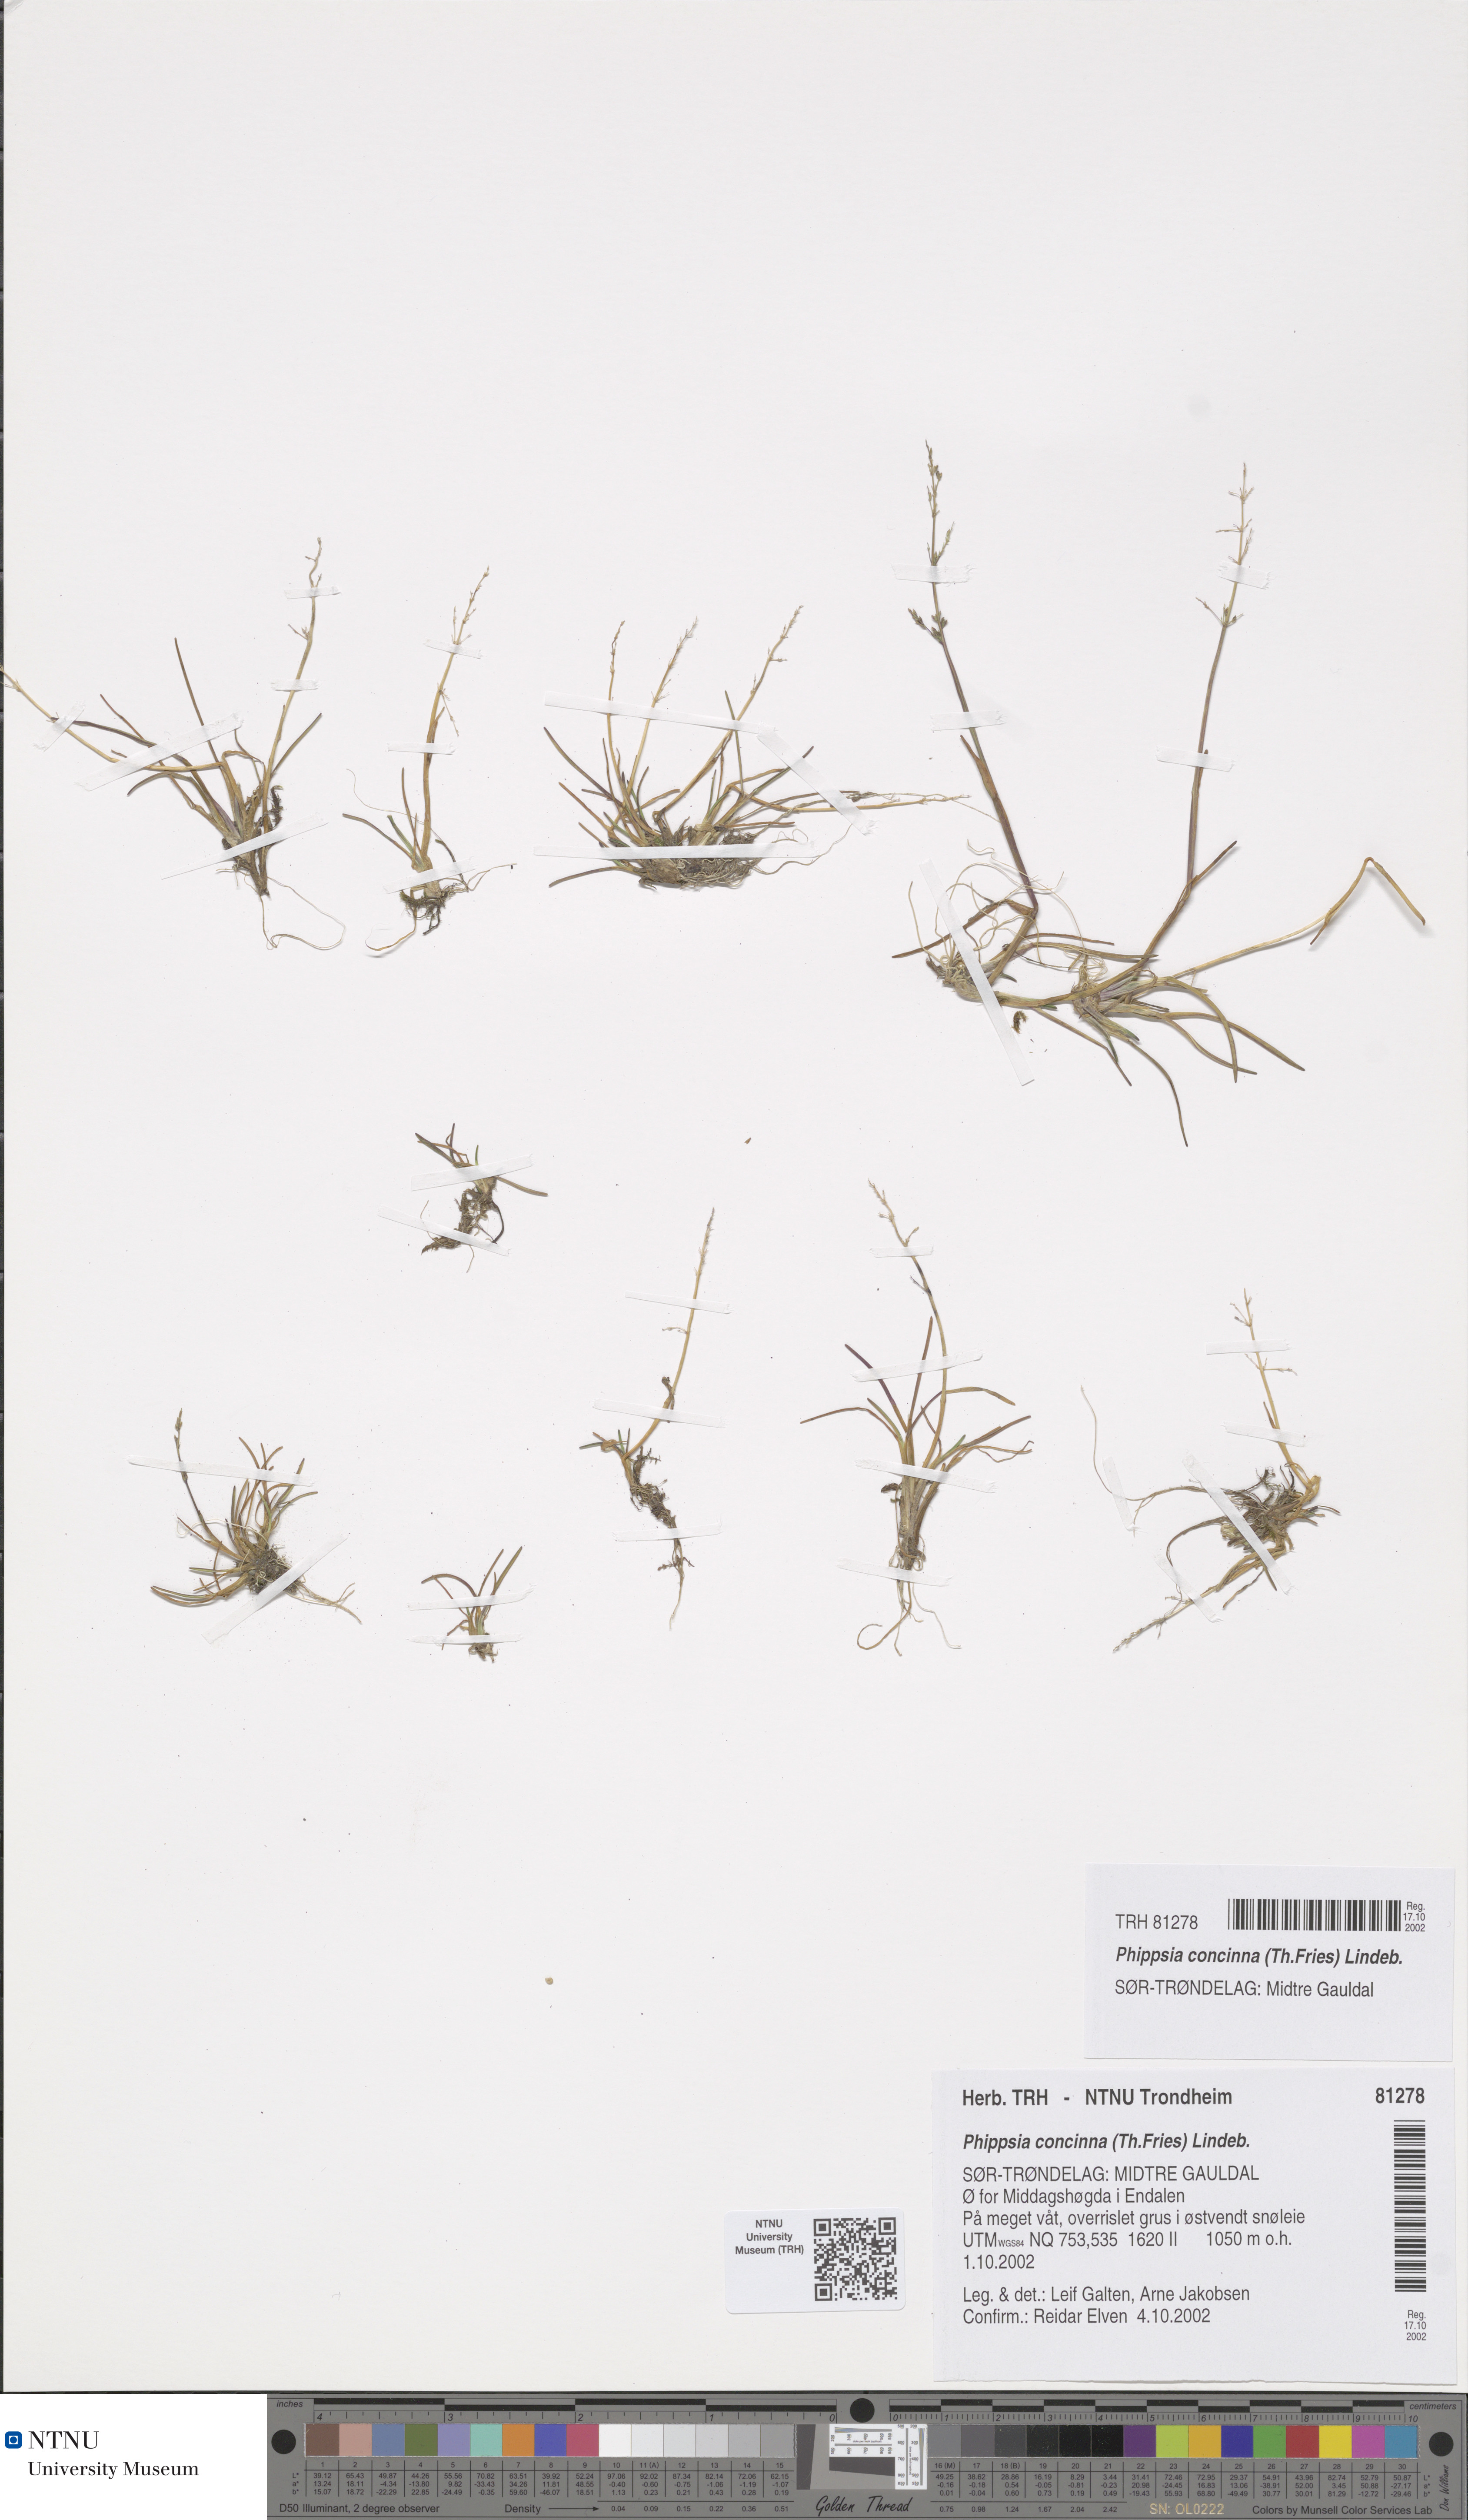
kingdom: Plantae
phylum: Tracheophyta
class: Liliopsida
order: Poales
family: Poaceae
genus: Phippsia
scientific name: Phippsia concinna
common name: Snowgrass
